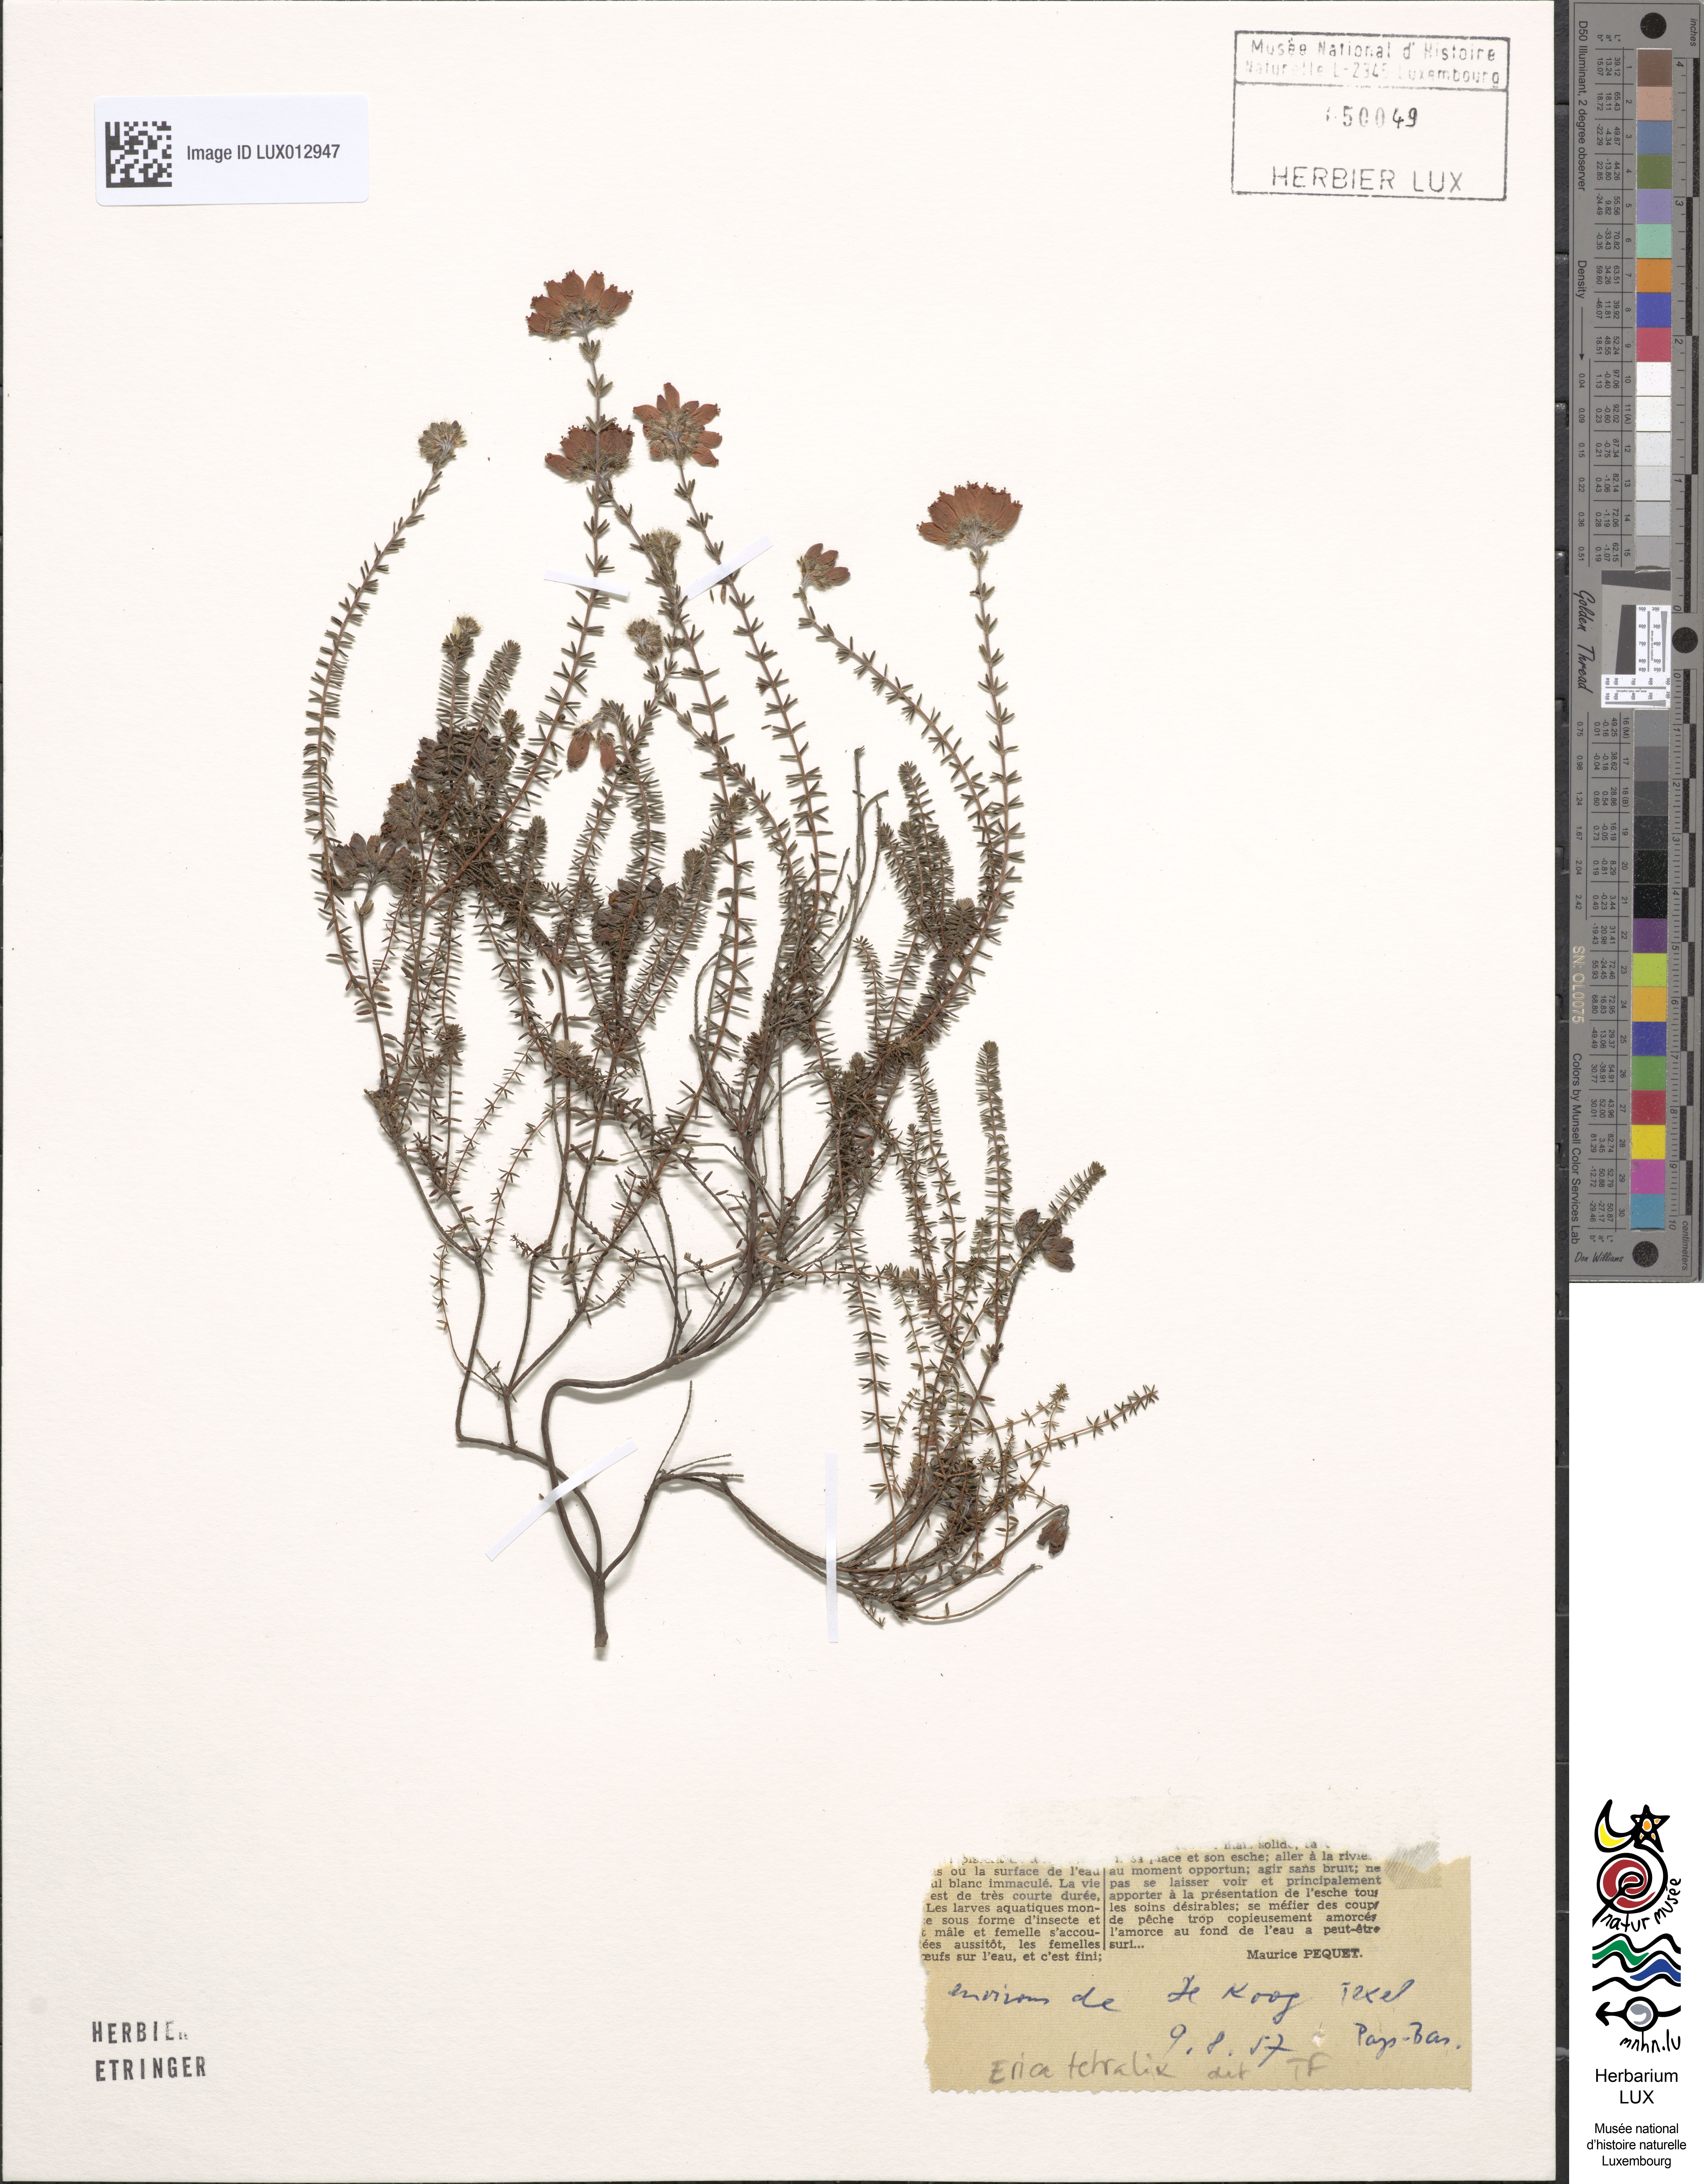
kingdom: Plantae
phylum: Tracheophyta
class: Magnoliopsida
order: Ericales
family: Ericaceae
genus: Erica
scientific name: Erica tetralix
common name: Cross-leaved heath
